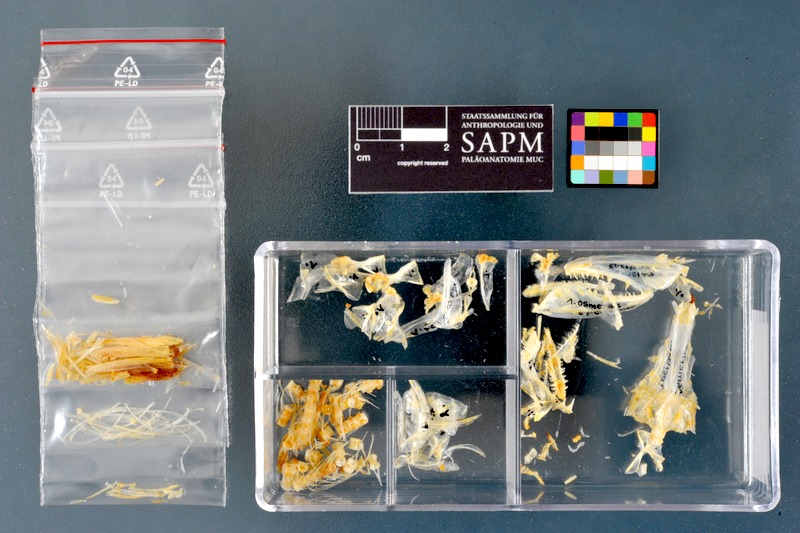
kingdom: Animalia
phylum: Chordata
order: Osmeriformes
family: Osmeridae
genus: Osmerus
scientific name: Osmerus eperlanus
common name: Smelt
